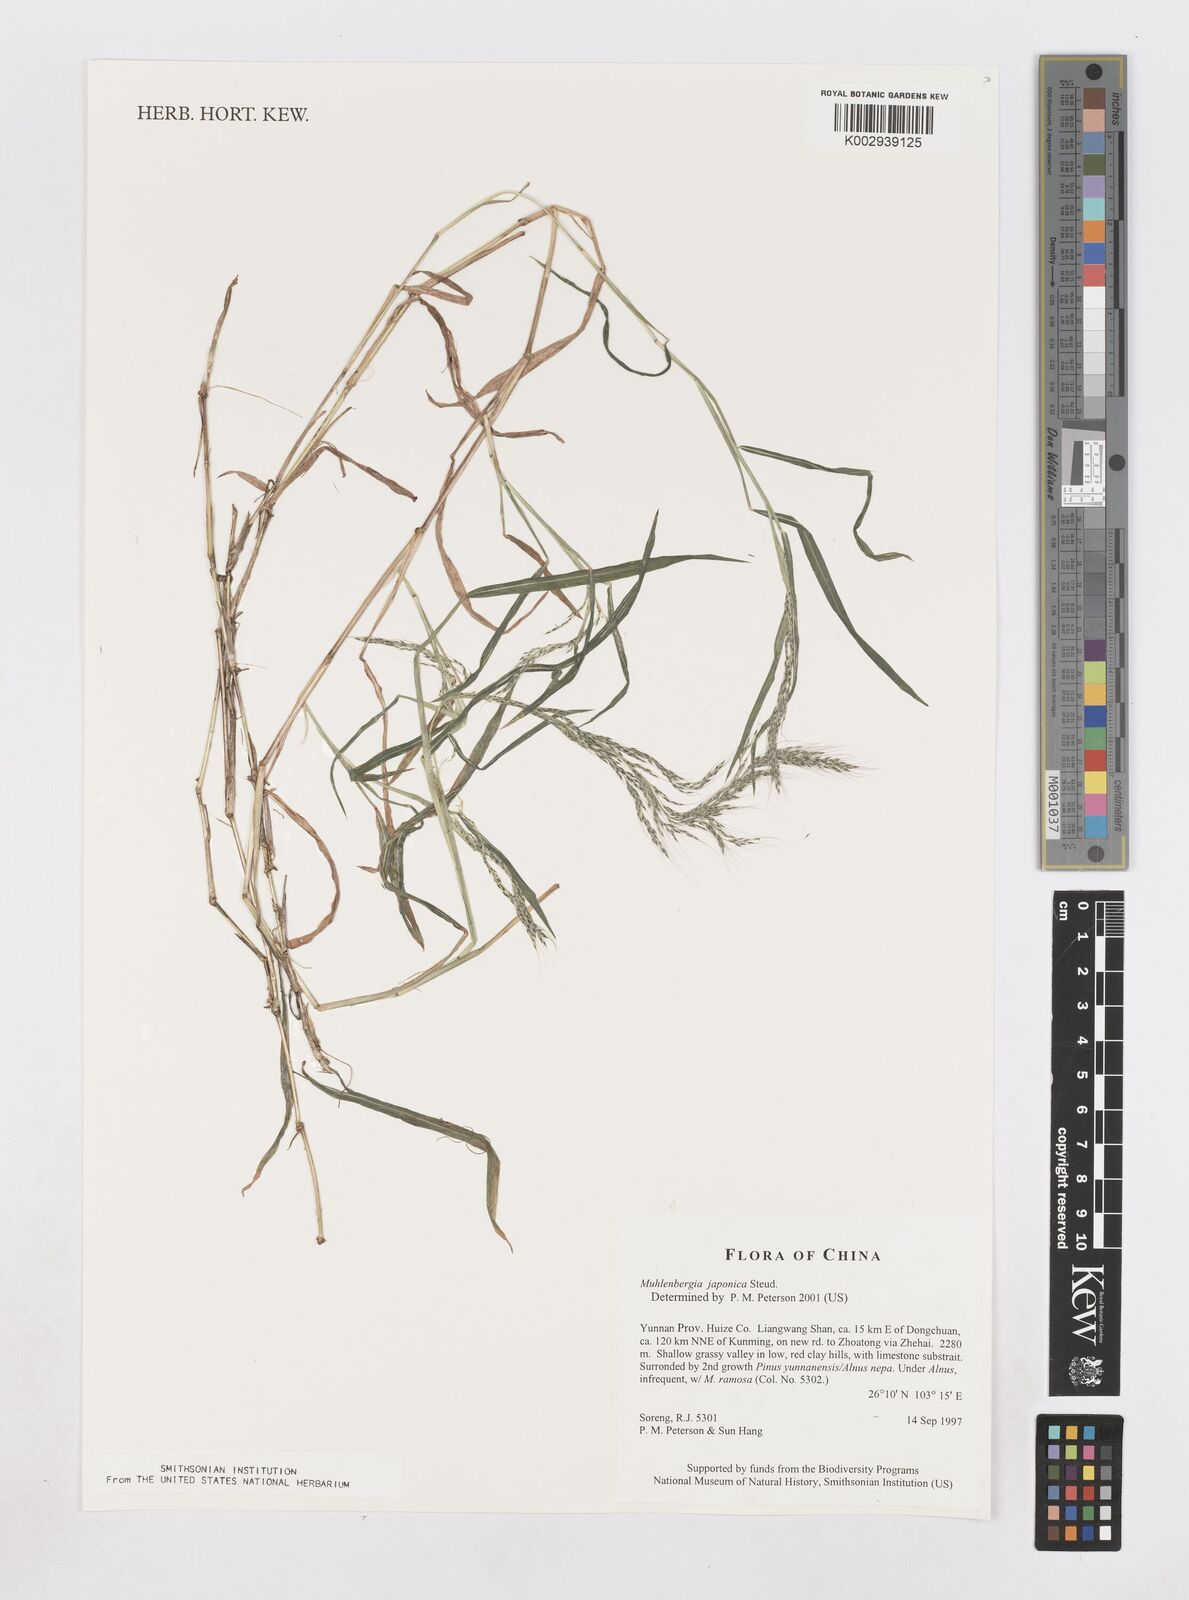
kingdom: Plantae
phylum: Tracheophyta
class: Liliopsida
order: Poales
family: Poaceae
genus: Muhlenbergia
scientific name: Muhlenbergia japonica
